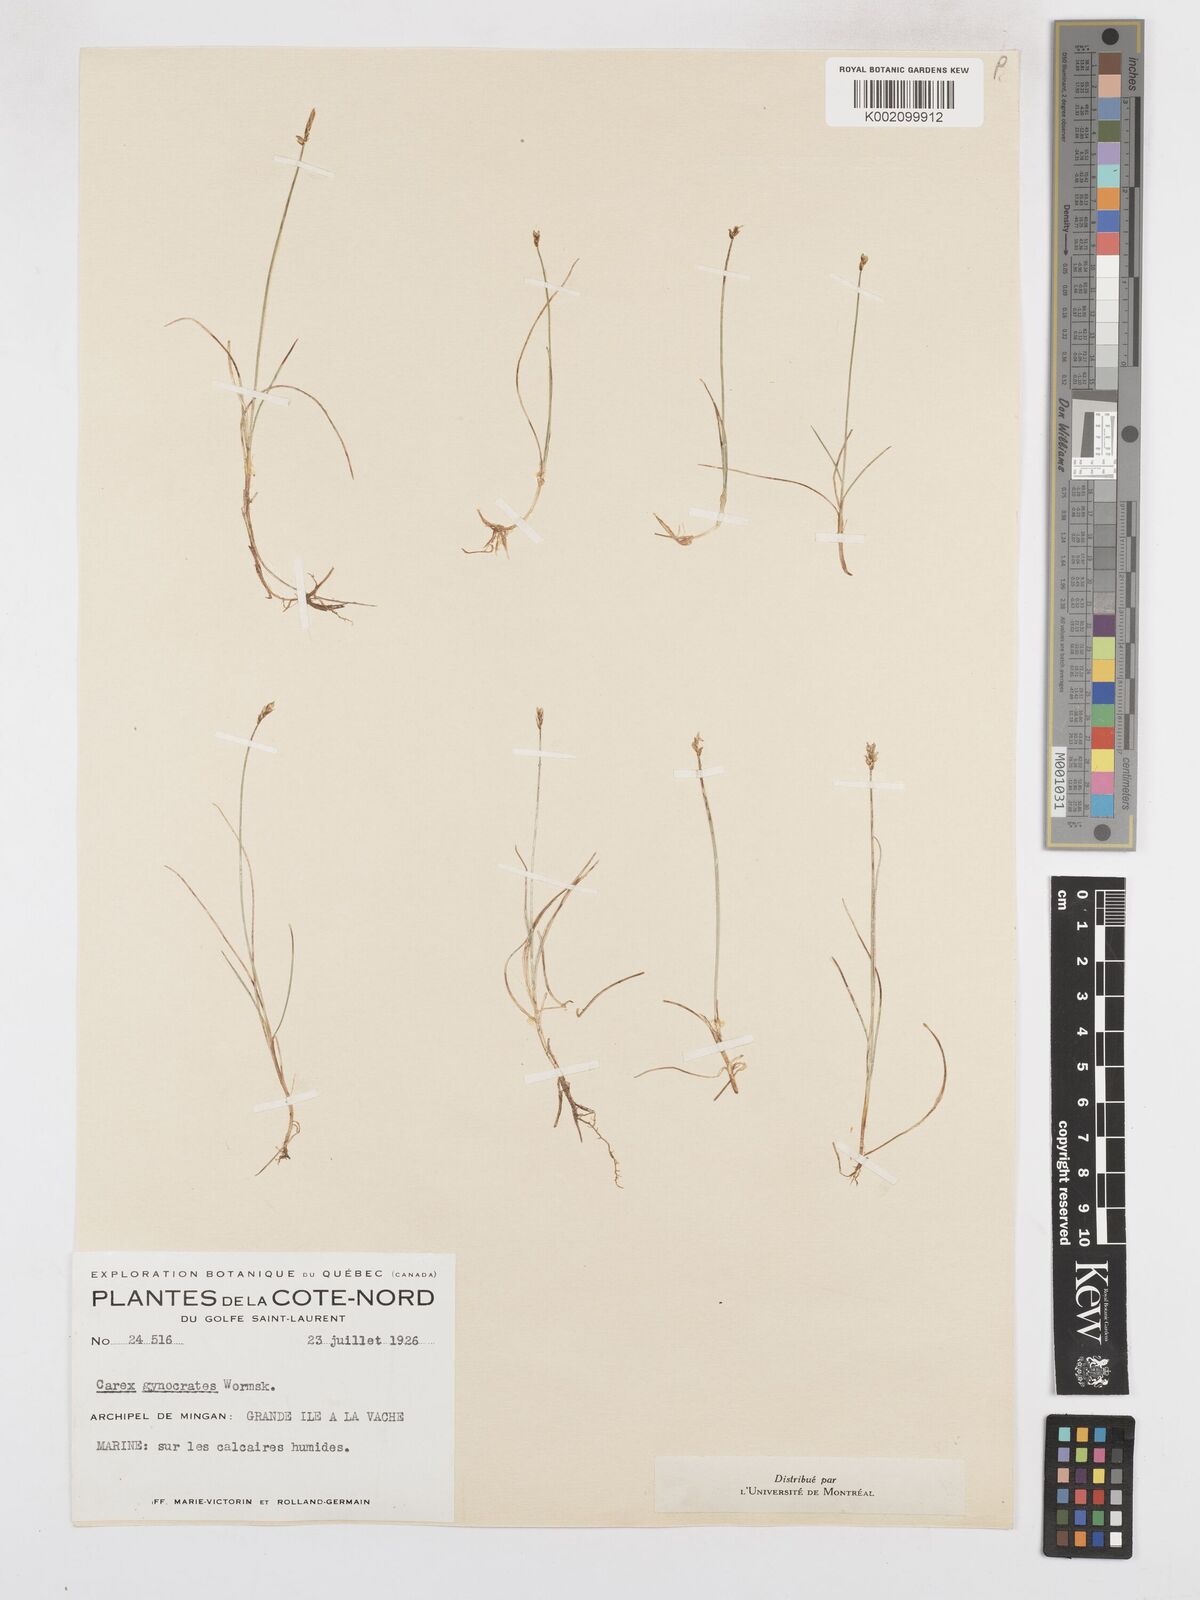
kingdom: Plantae
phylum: Tracheophyta
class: Liliopsida
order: Poales
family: Cyperaceae
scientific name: Cyperaceae
